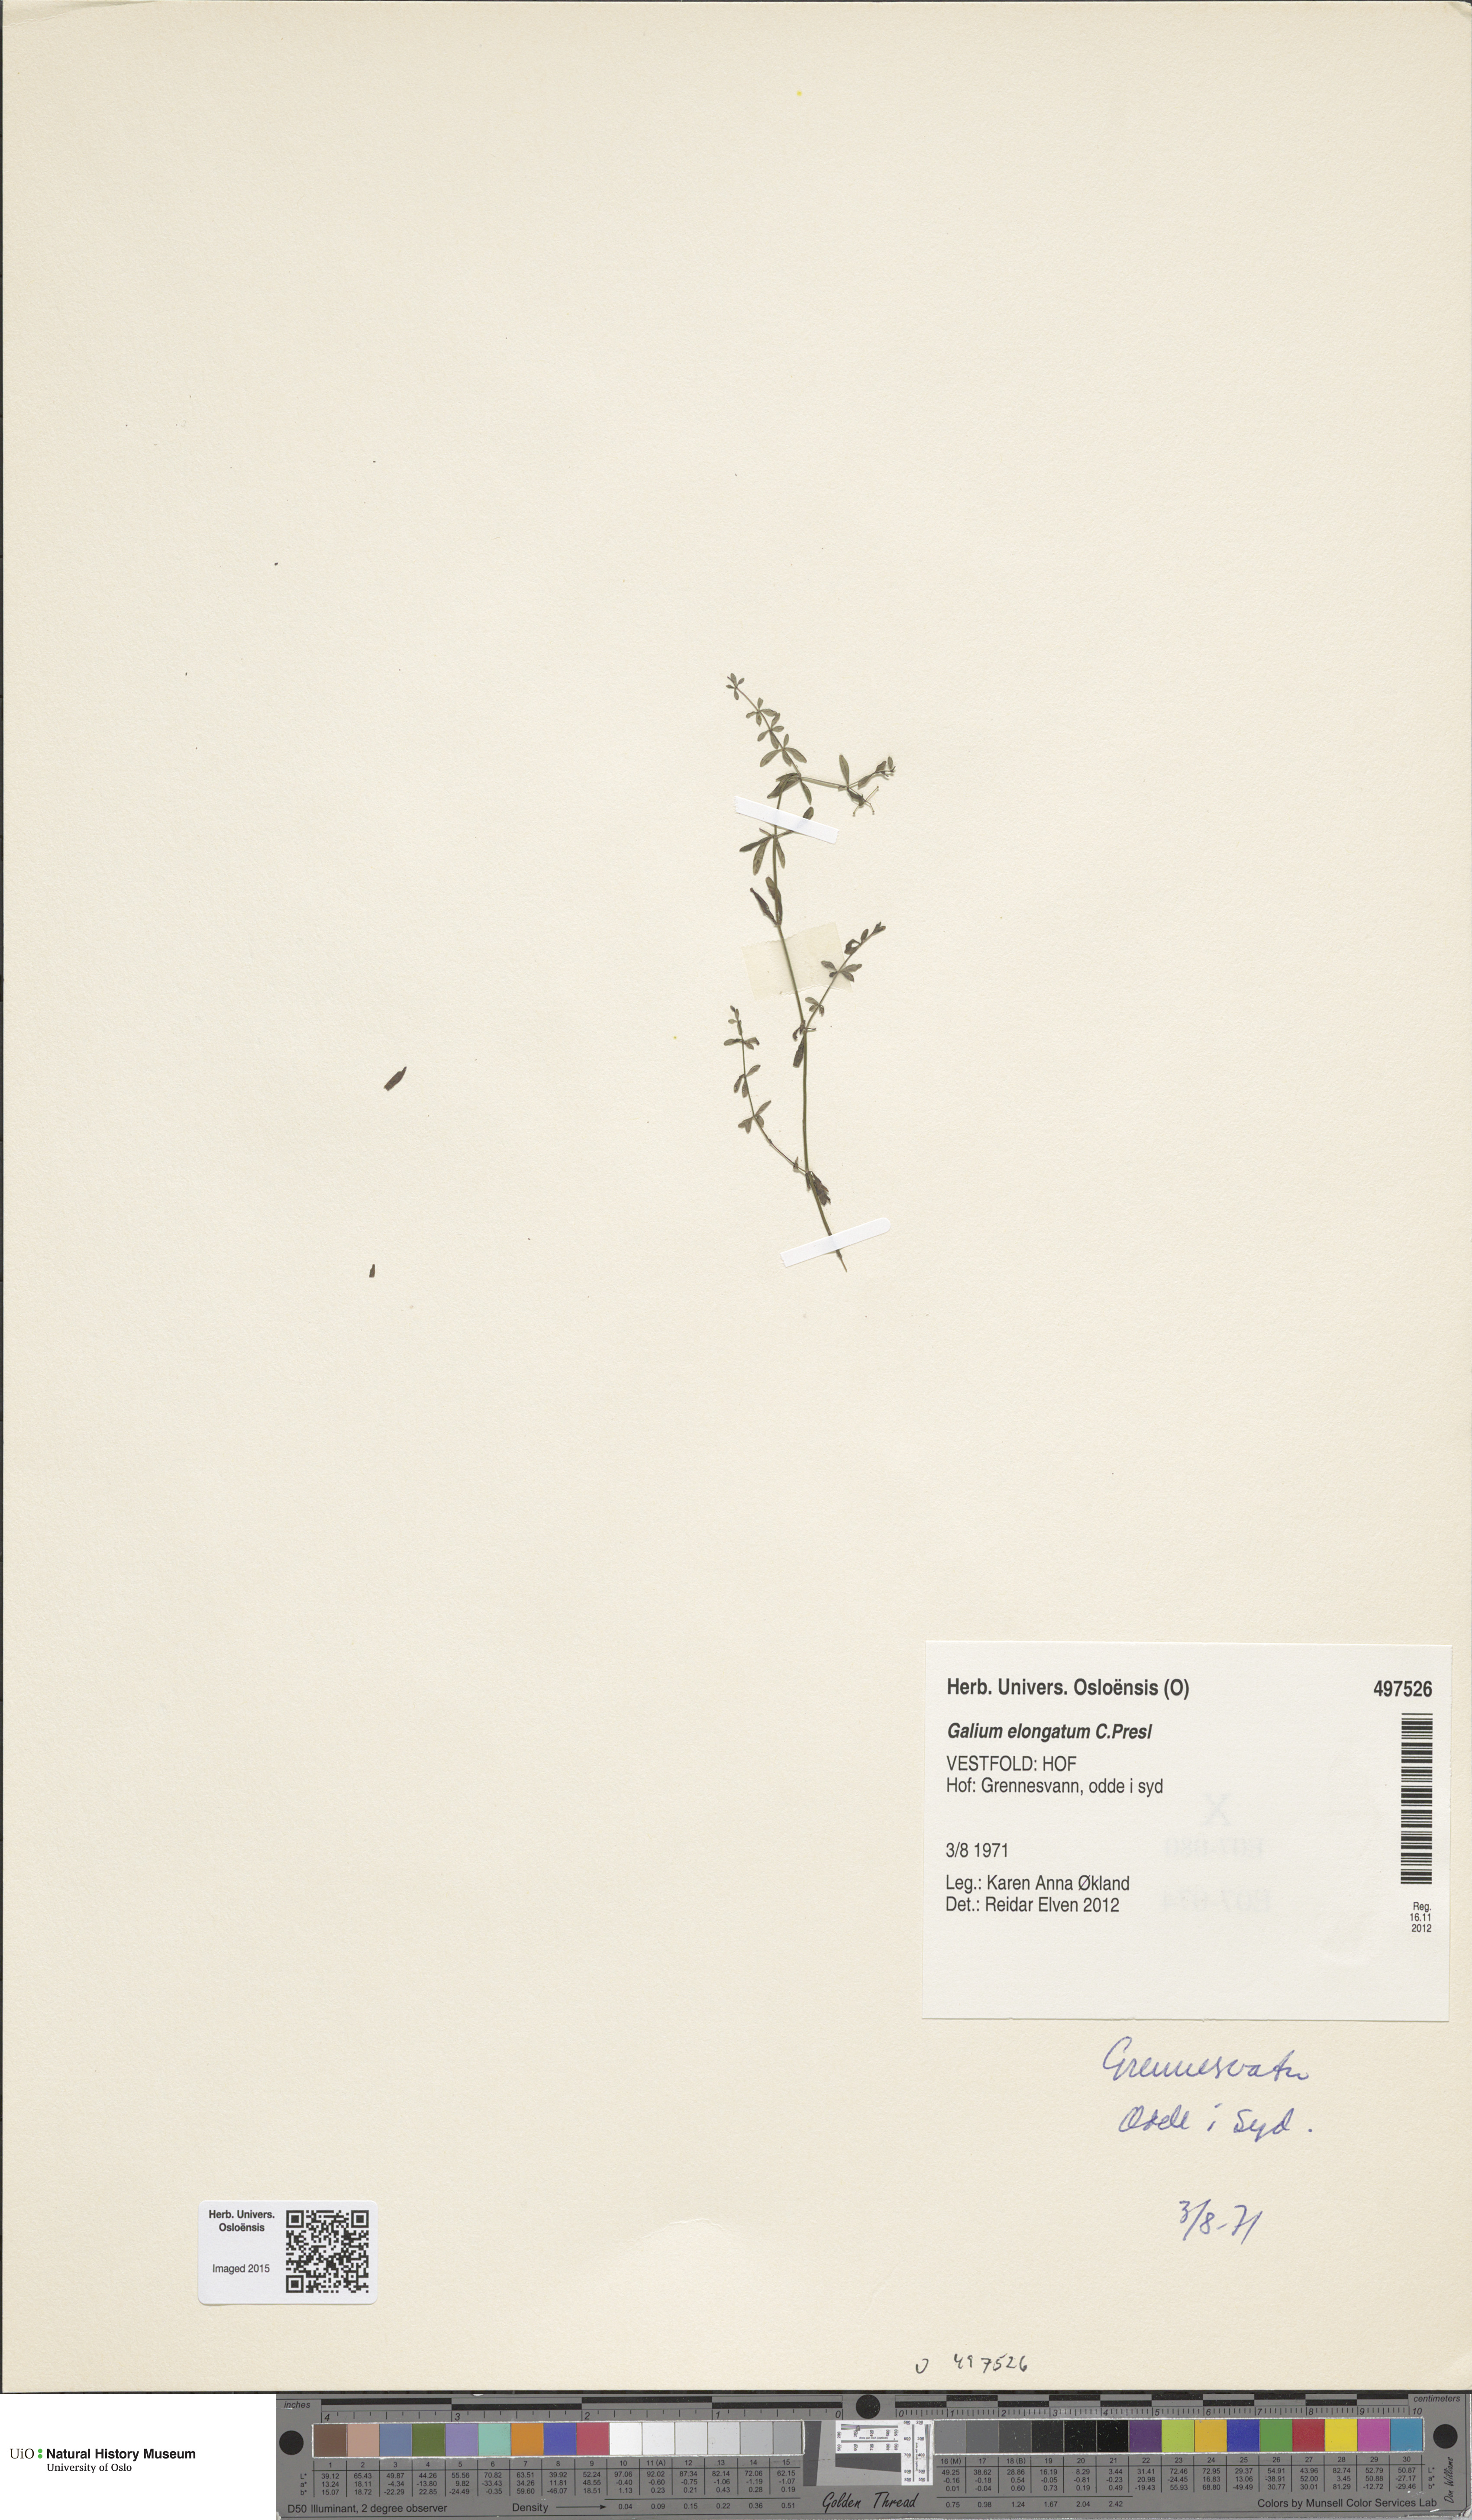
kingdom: Plantae
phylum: Tracheophyta
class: Magnoliopsida
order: Gentianales
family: Rubiaceae
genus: Galium
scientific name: Galium elongatum
